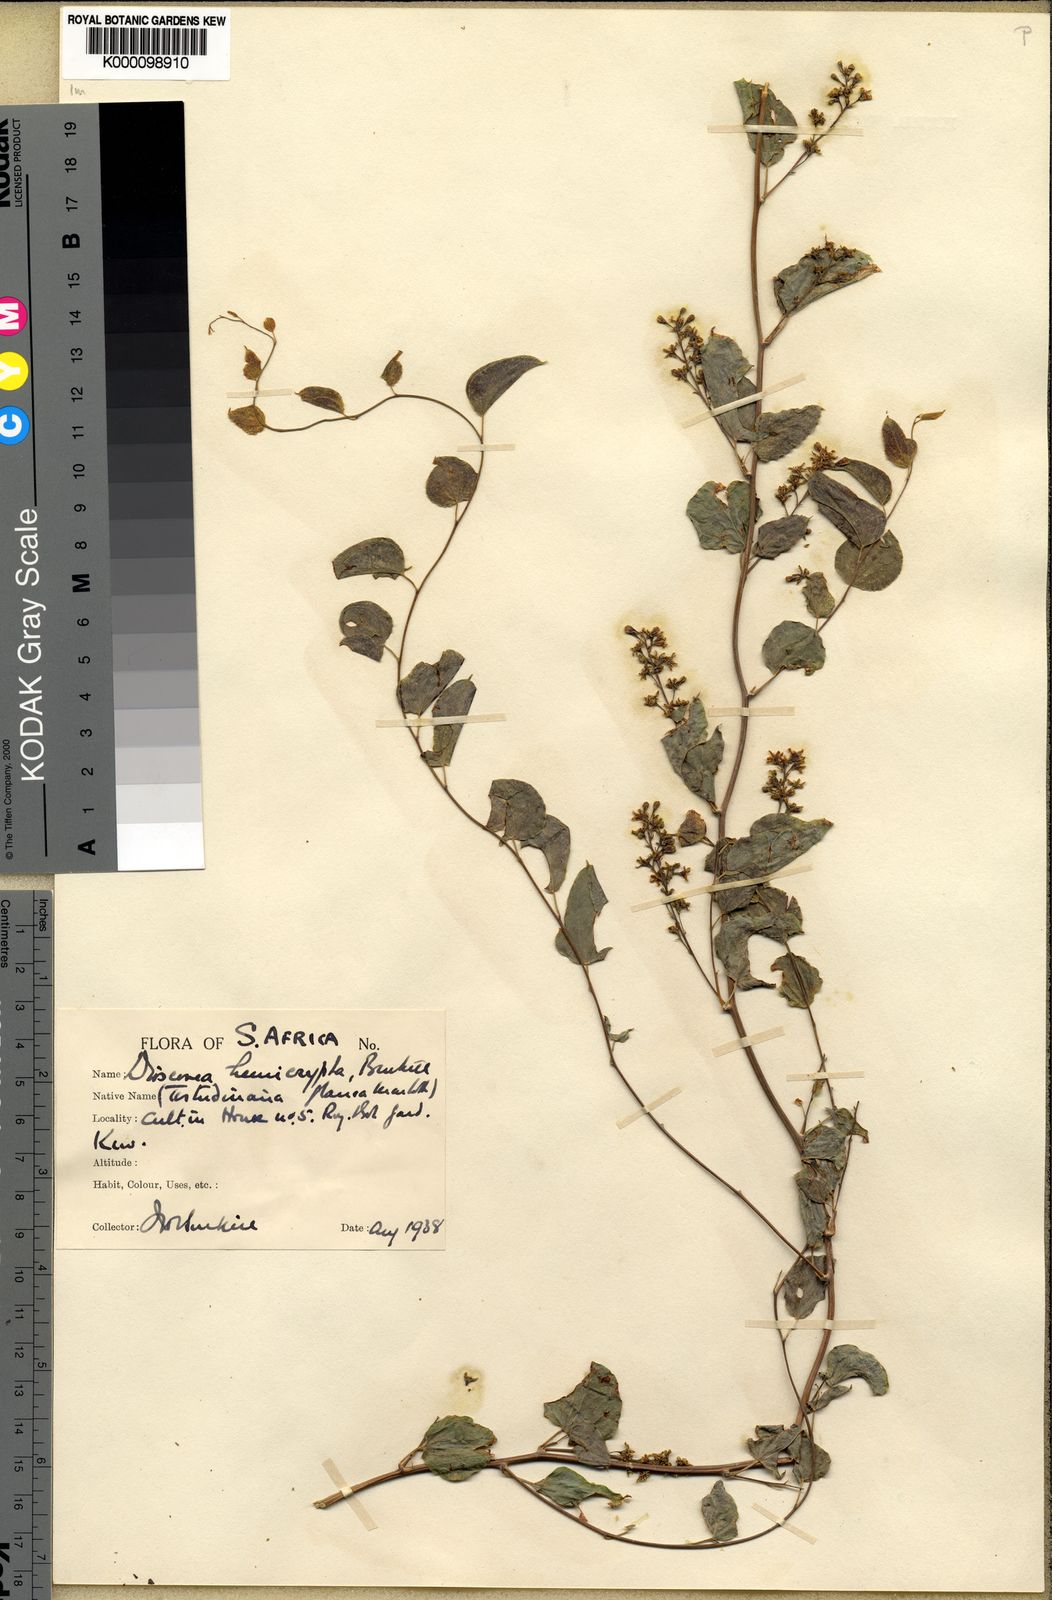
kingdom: Plantae
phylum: Tracheophyta
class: Liliopsida
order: Dioscoreales
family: Dioscoreaceae
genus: Dioscorea
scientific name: Dioscorea hemicrypta
